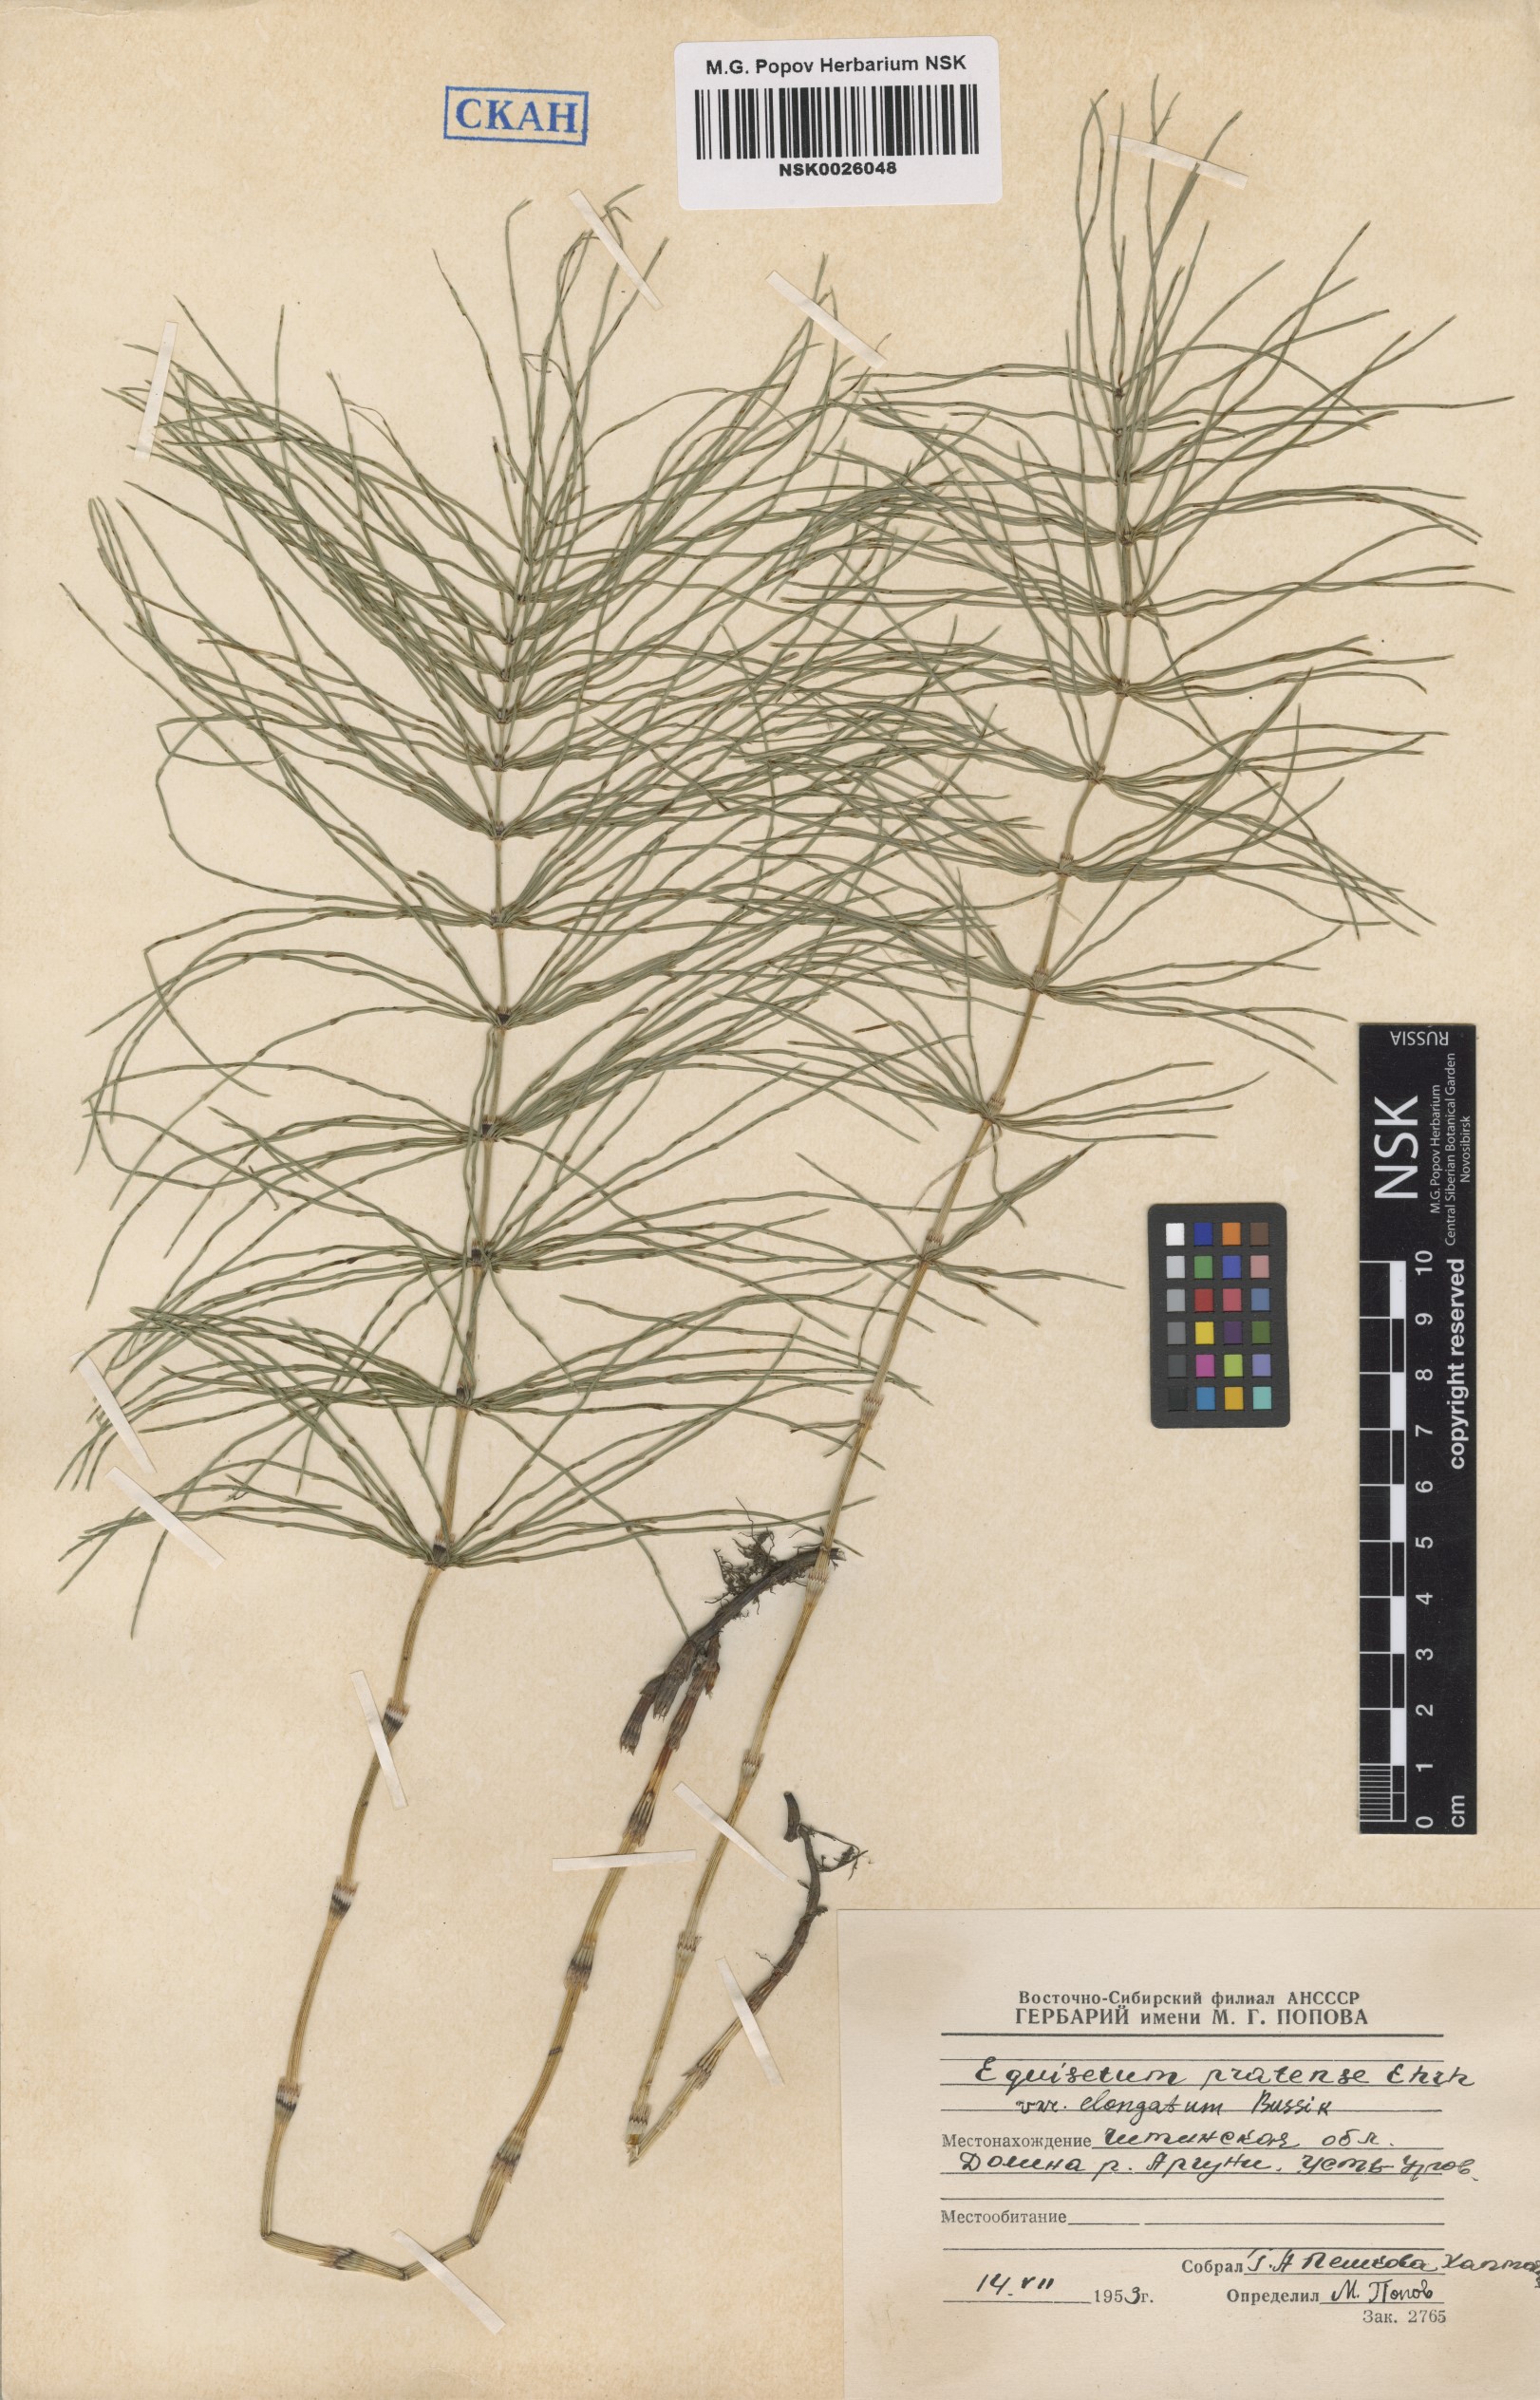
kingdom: Plantae
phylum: Tracheophyta
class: Polypodiopsida
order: Equisetales
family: Equisetaceae
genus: Equisetum
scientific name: Equisetum pratense
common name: Meadow horsetail
